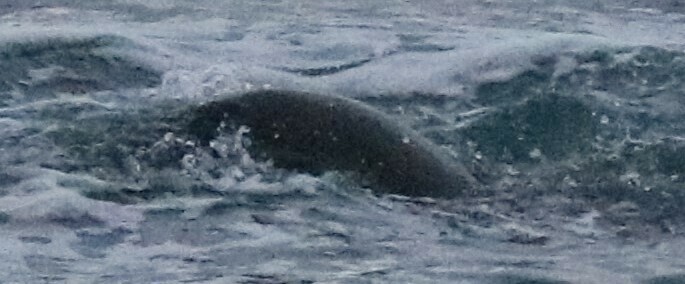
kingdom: Animalia
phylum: Chordata
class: Mammalia
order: Carnivora
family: Otariidae
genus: Zalophus
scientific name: Zalophus californianus
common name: California sea lion
